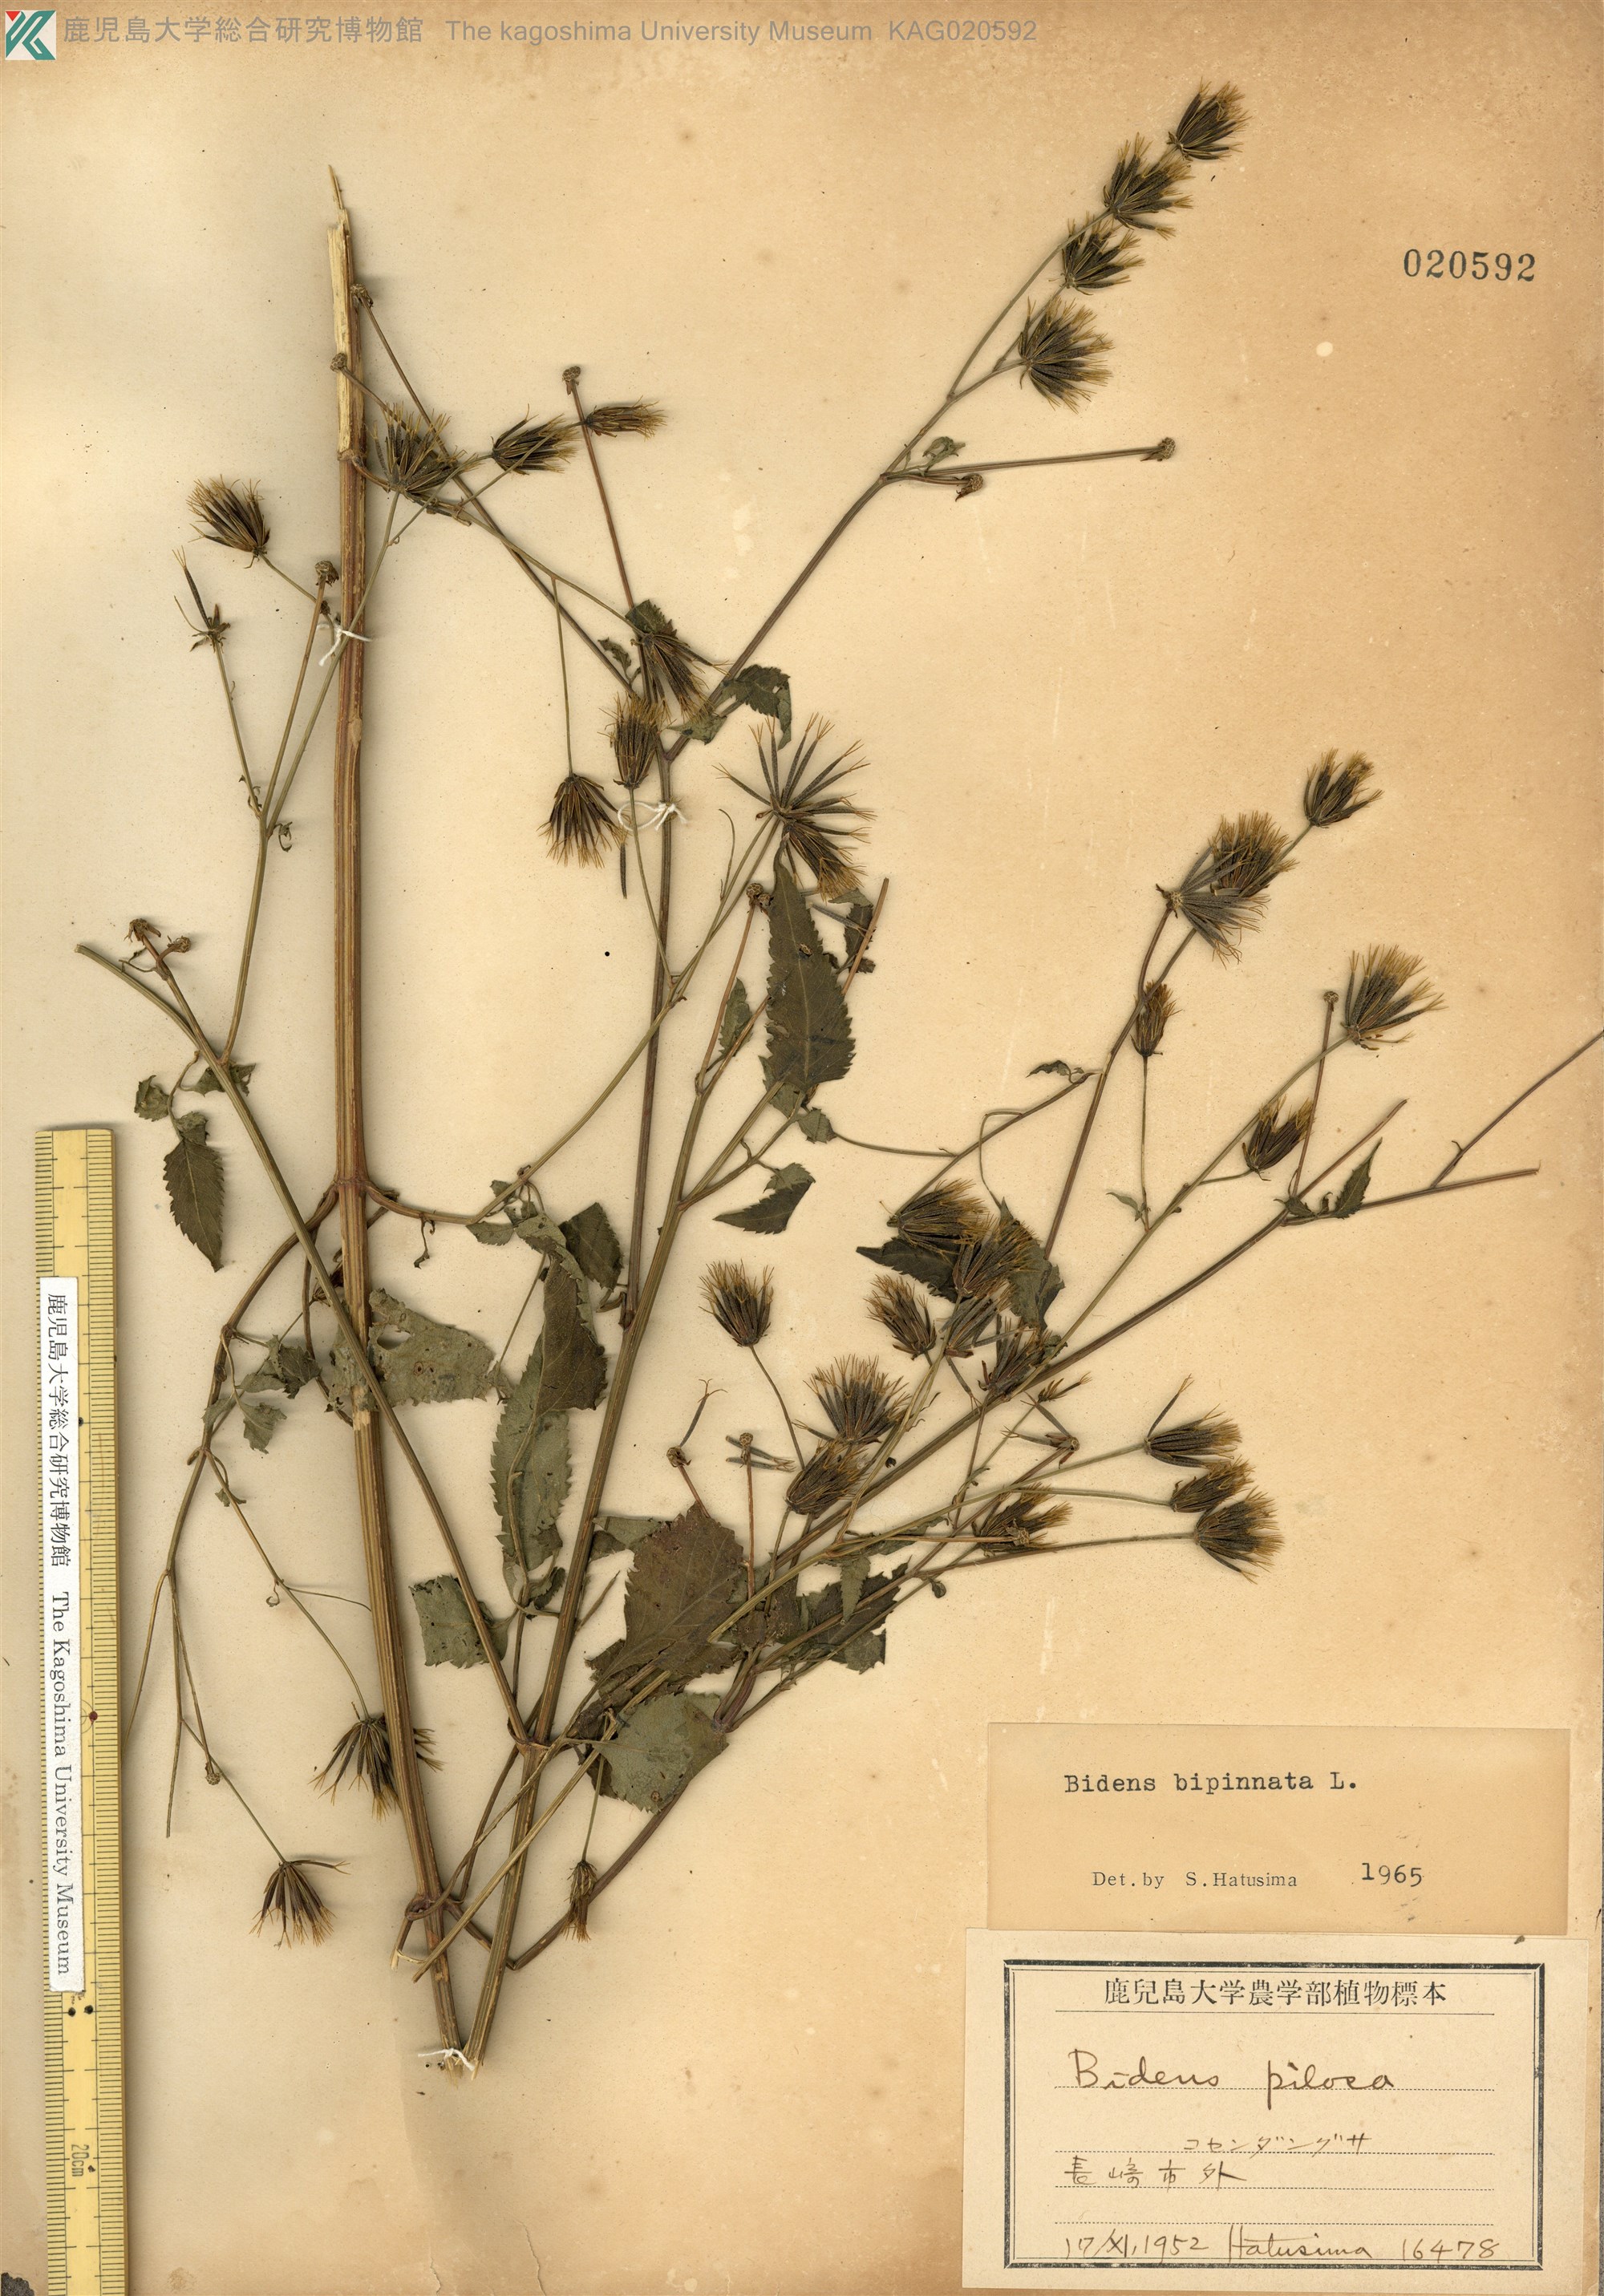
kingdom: Plantae
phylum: Tracheophyta
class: Magnoliopsida
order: Asterales
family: Asteraceae
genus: Bidens
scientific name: Bidens bipinnata
